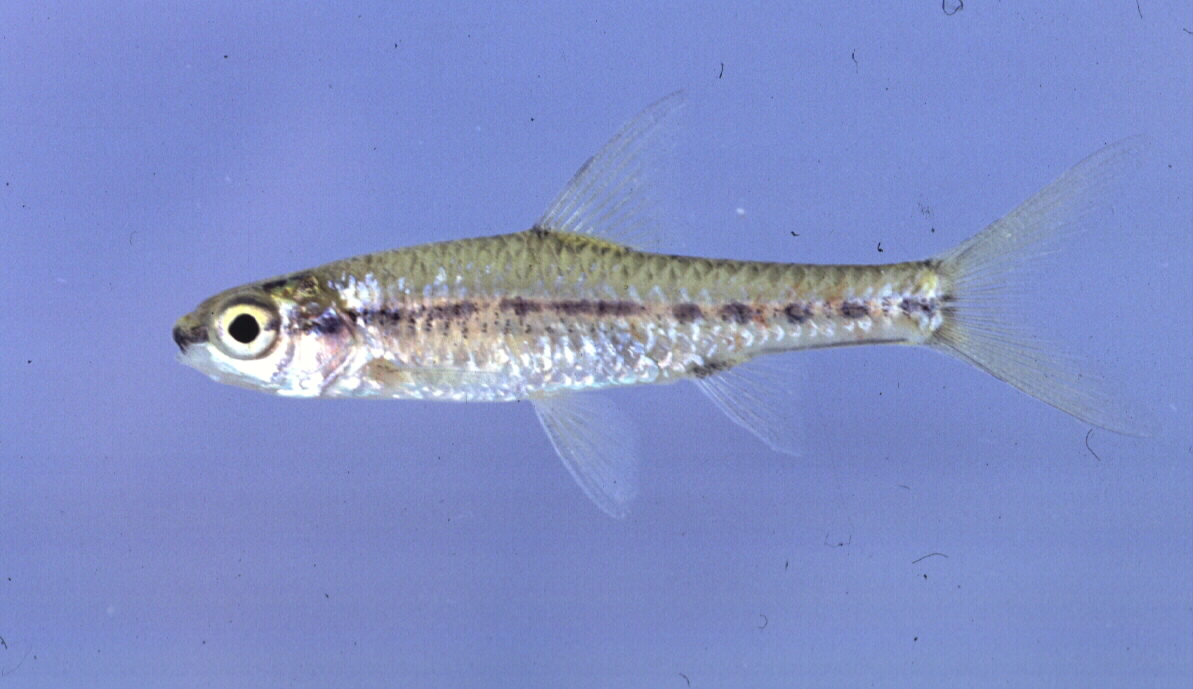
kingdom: Animalia
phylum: Chordata
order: Cypriniformes
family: Cyprinidae
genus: Enteromius
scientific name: Enteromius barnardi
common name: Blackback barb
